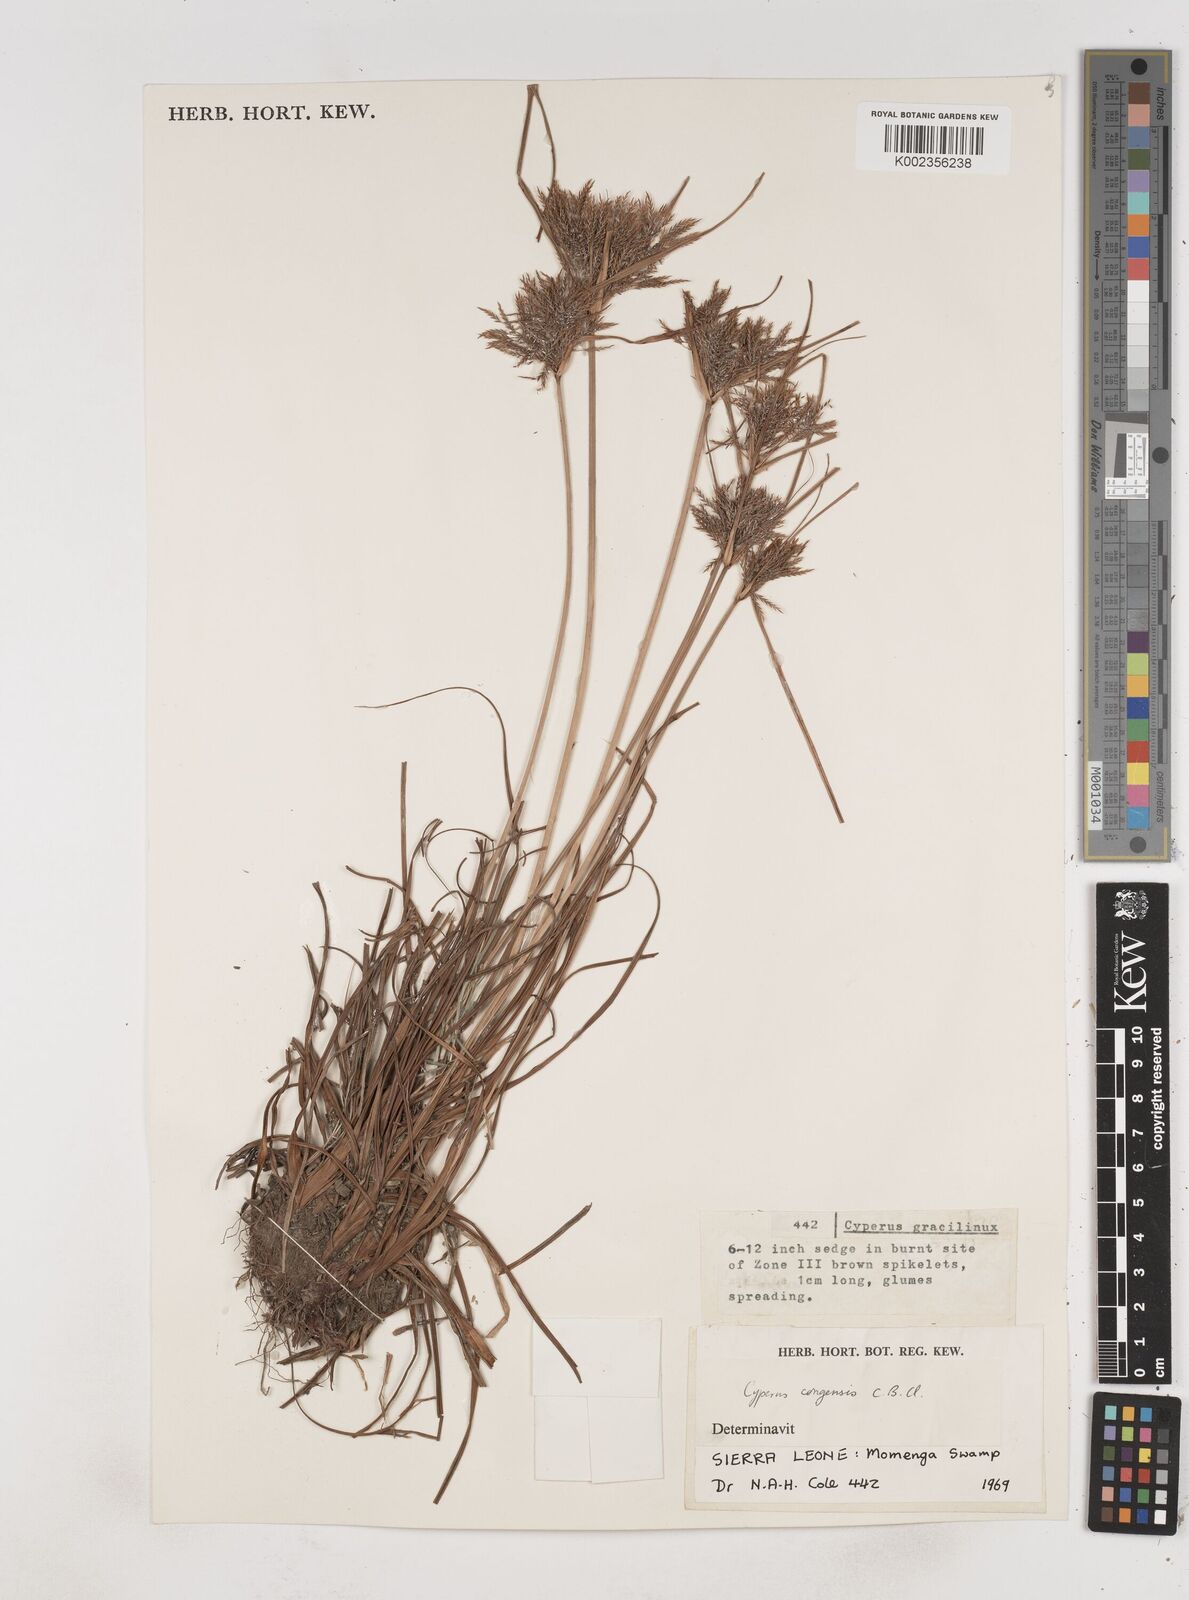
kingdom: Plantae
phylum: Tracheophyta
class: Liliopsida
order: Poales
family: Cyperaceae
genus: Cyperus
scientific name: Cyperus congensis
